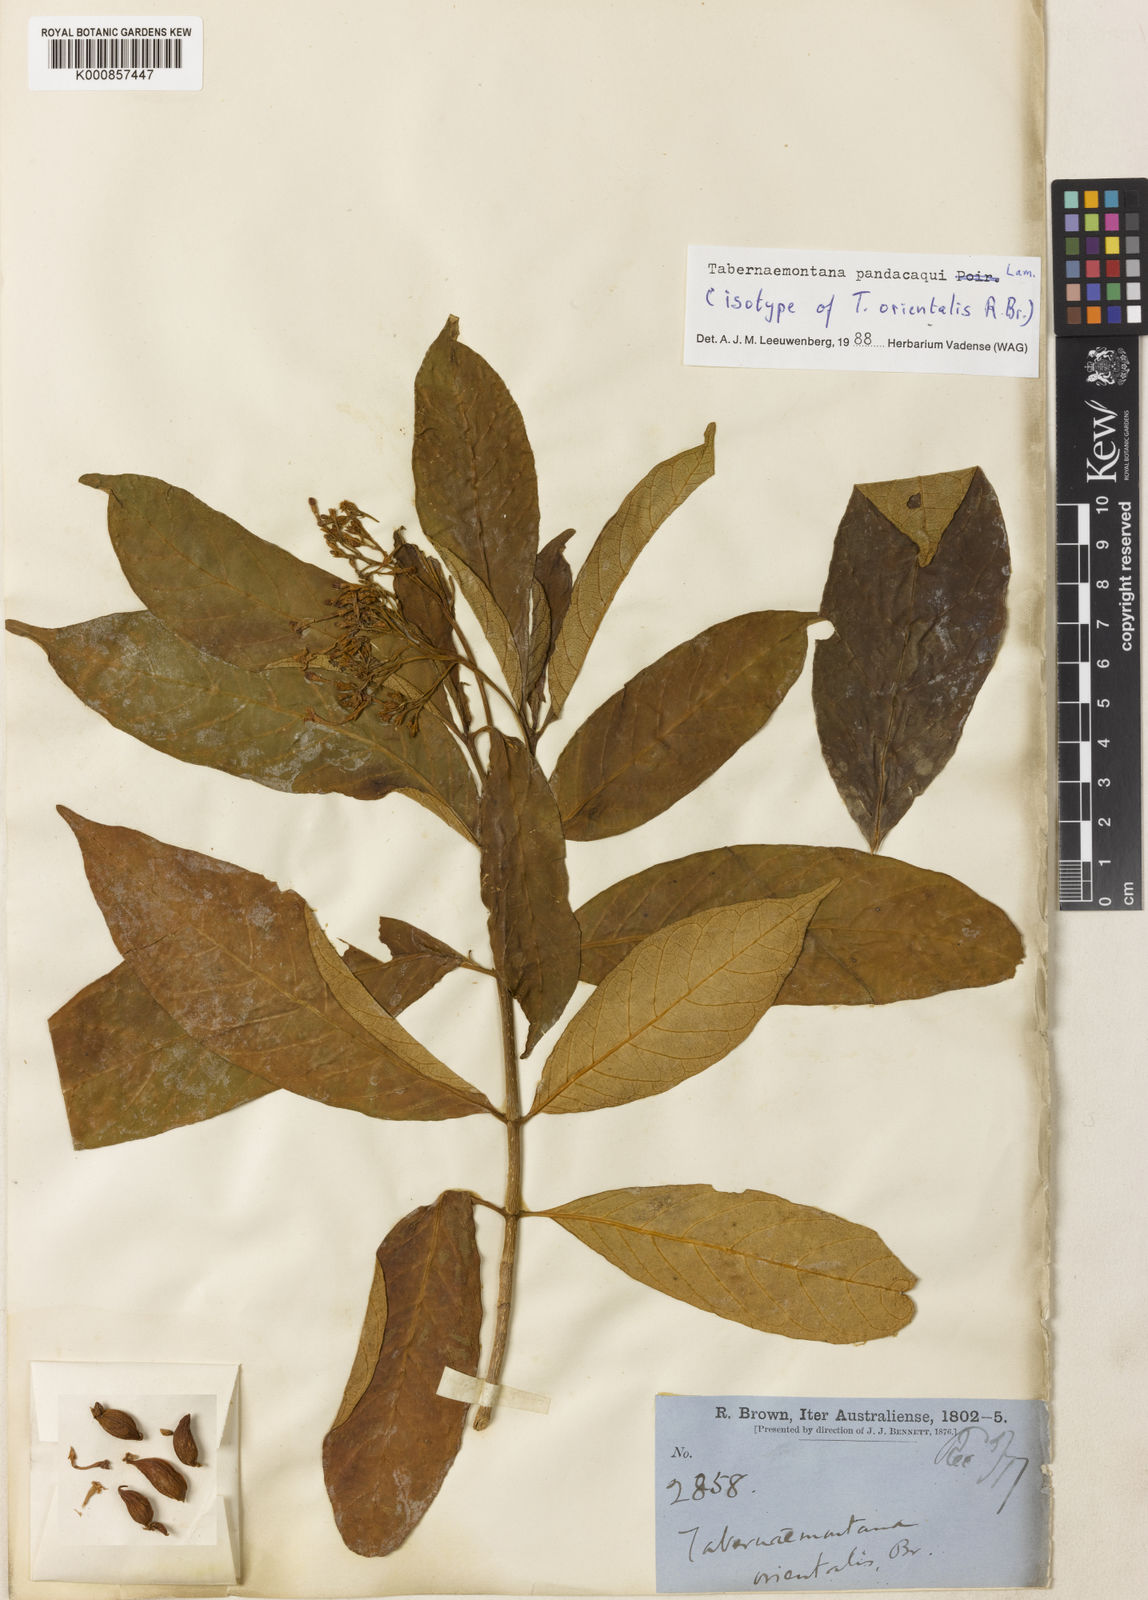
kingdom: Plantae
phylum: Tracheophyta
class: Magnoliopsida
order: Gentianales
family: Apocynaceae
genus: Tabernaemontana
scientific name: Tabernaemontana
